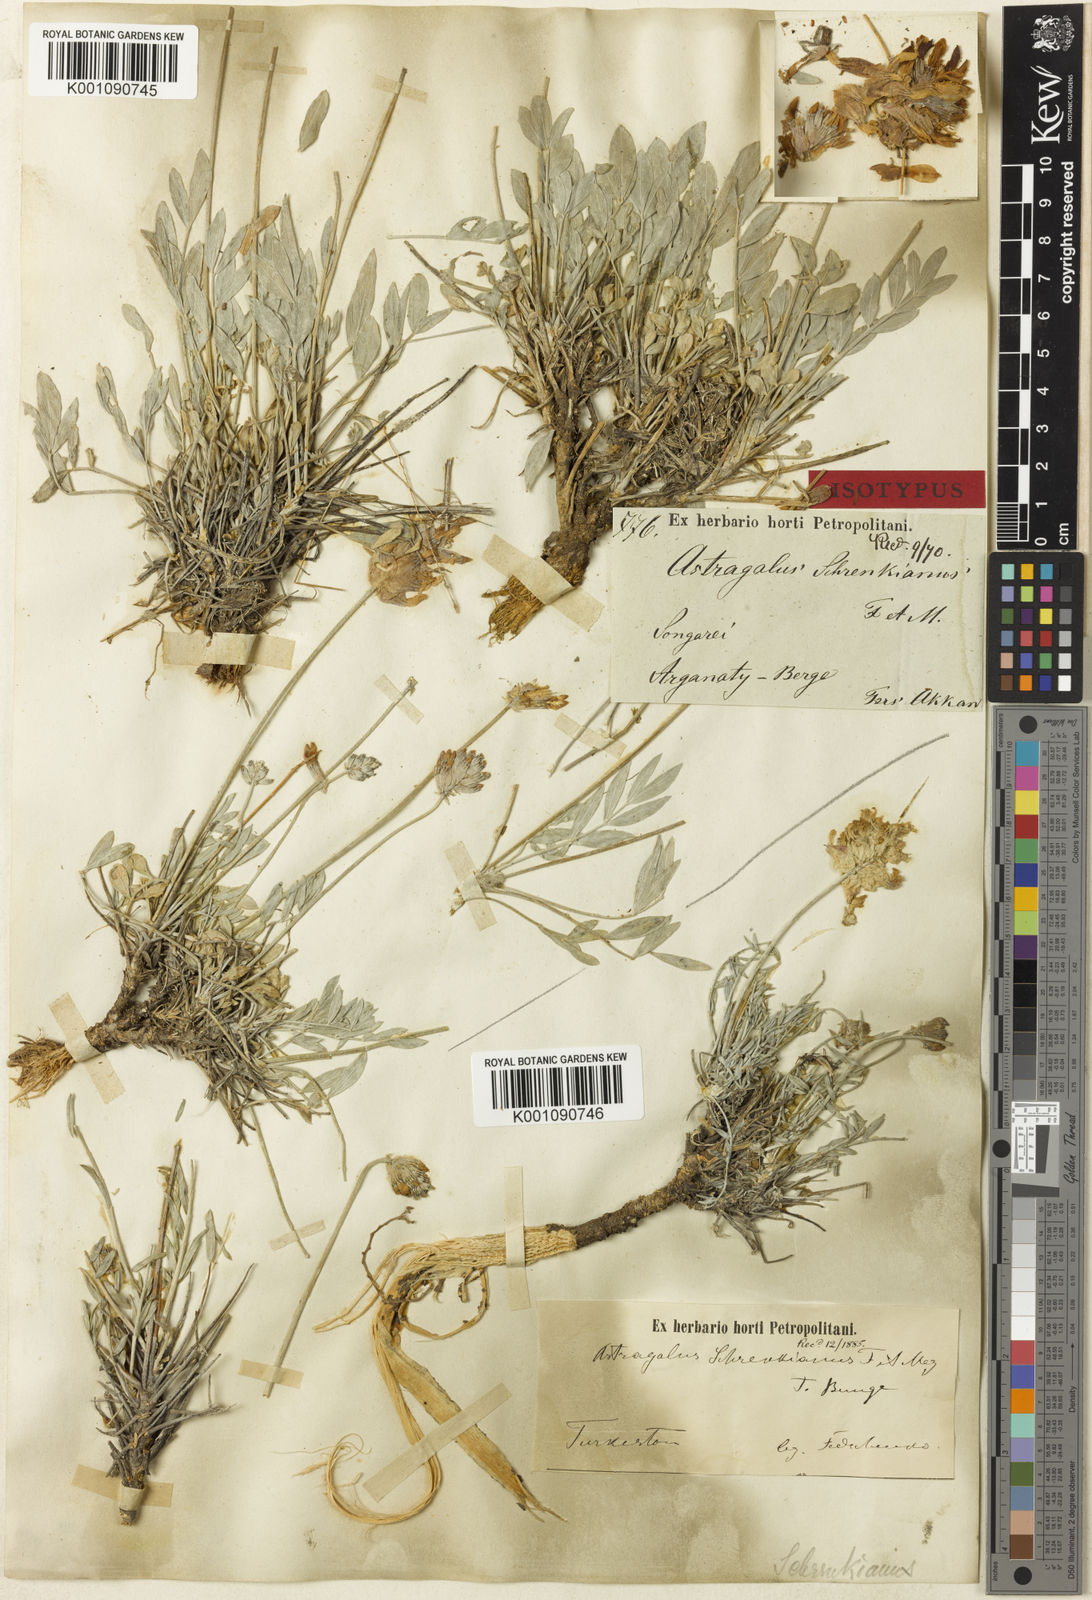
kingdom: Plantae
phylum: Tracheophyta
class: Magnoliopsida
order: Fabales
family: Fabaceae
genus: Astragalus
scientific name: Astragalus
